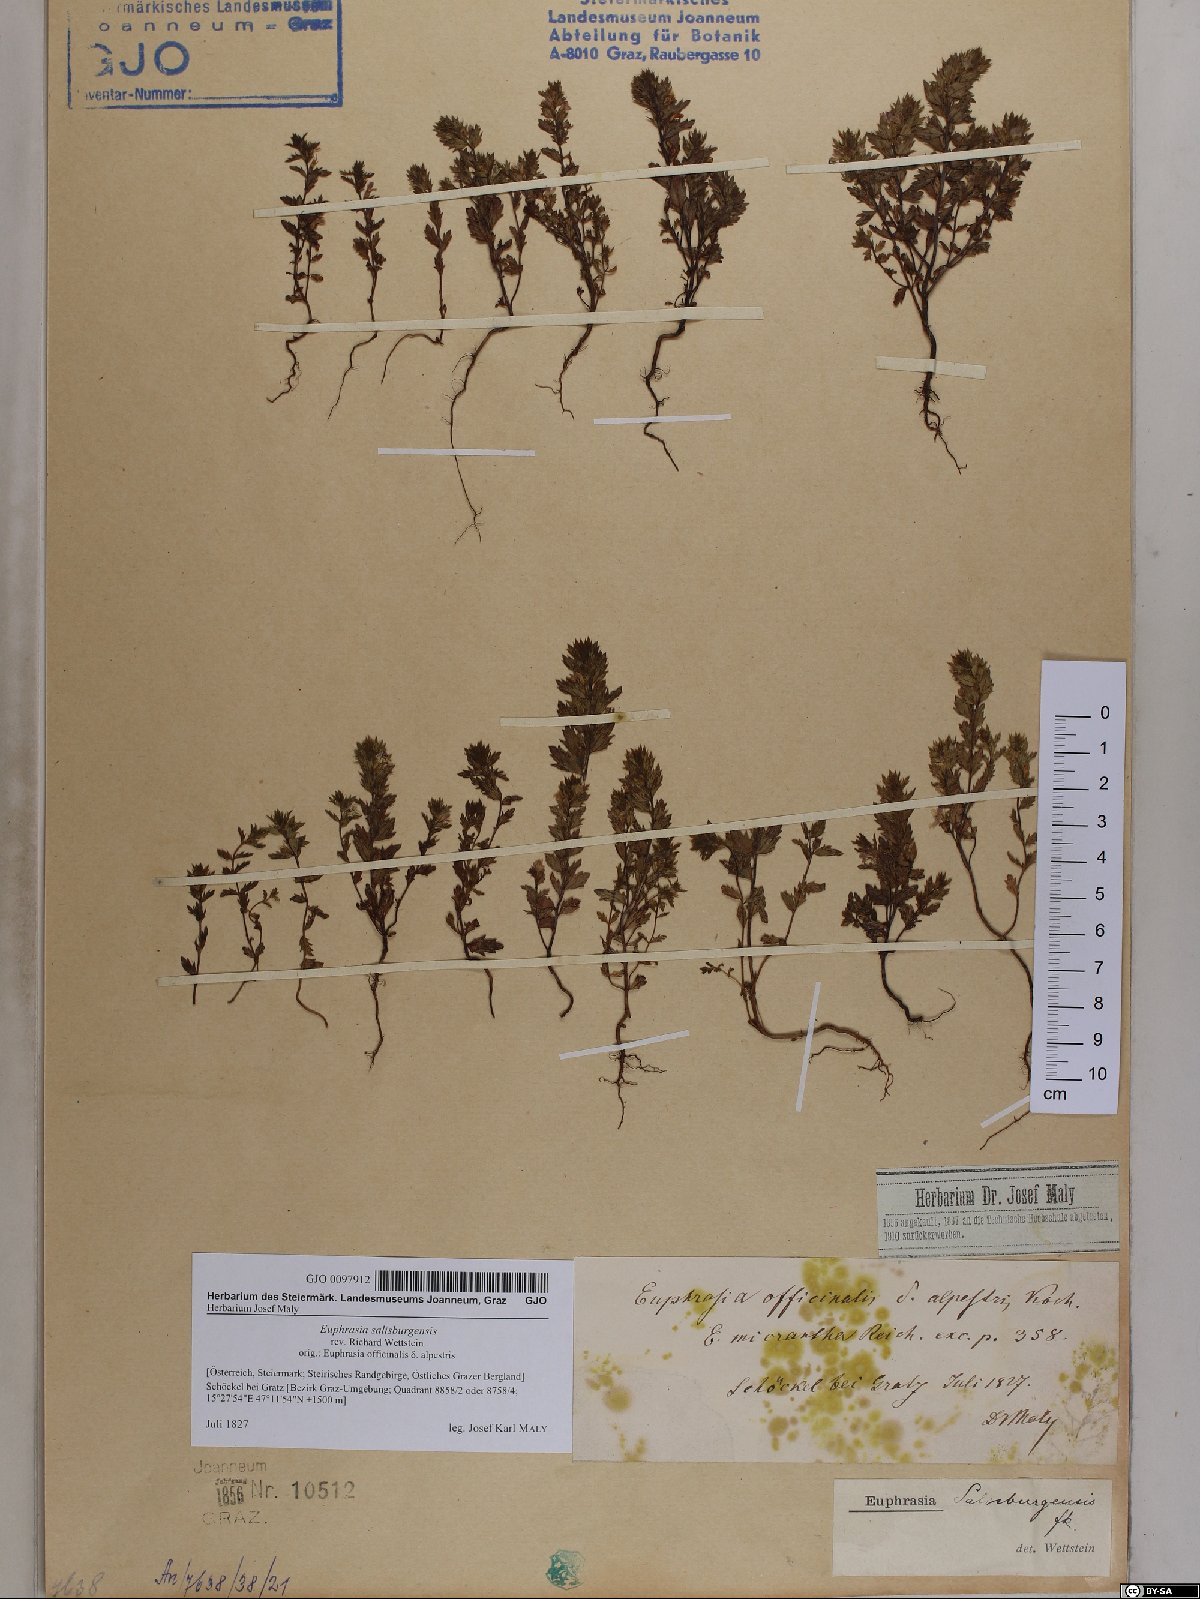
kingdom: Plantae
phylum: Tracheophyta
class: Magnoliopsida
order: Lamiales
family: Orobanchaceae
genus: Euphrasia
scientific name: Euphrasia salisburgensis
